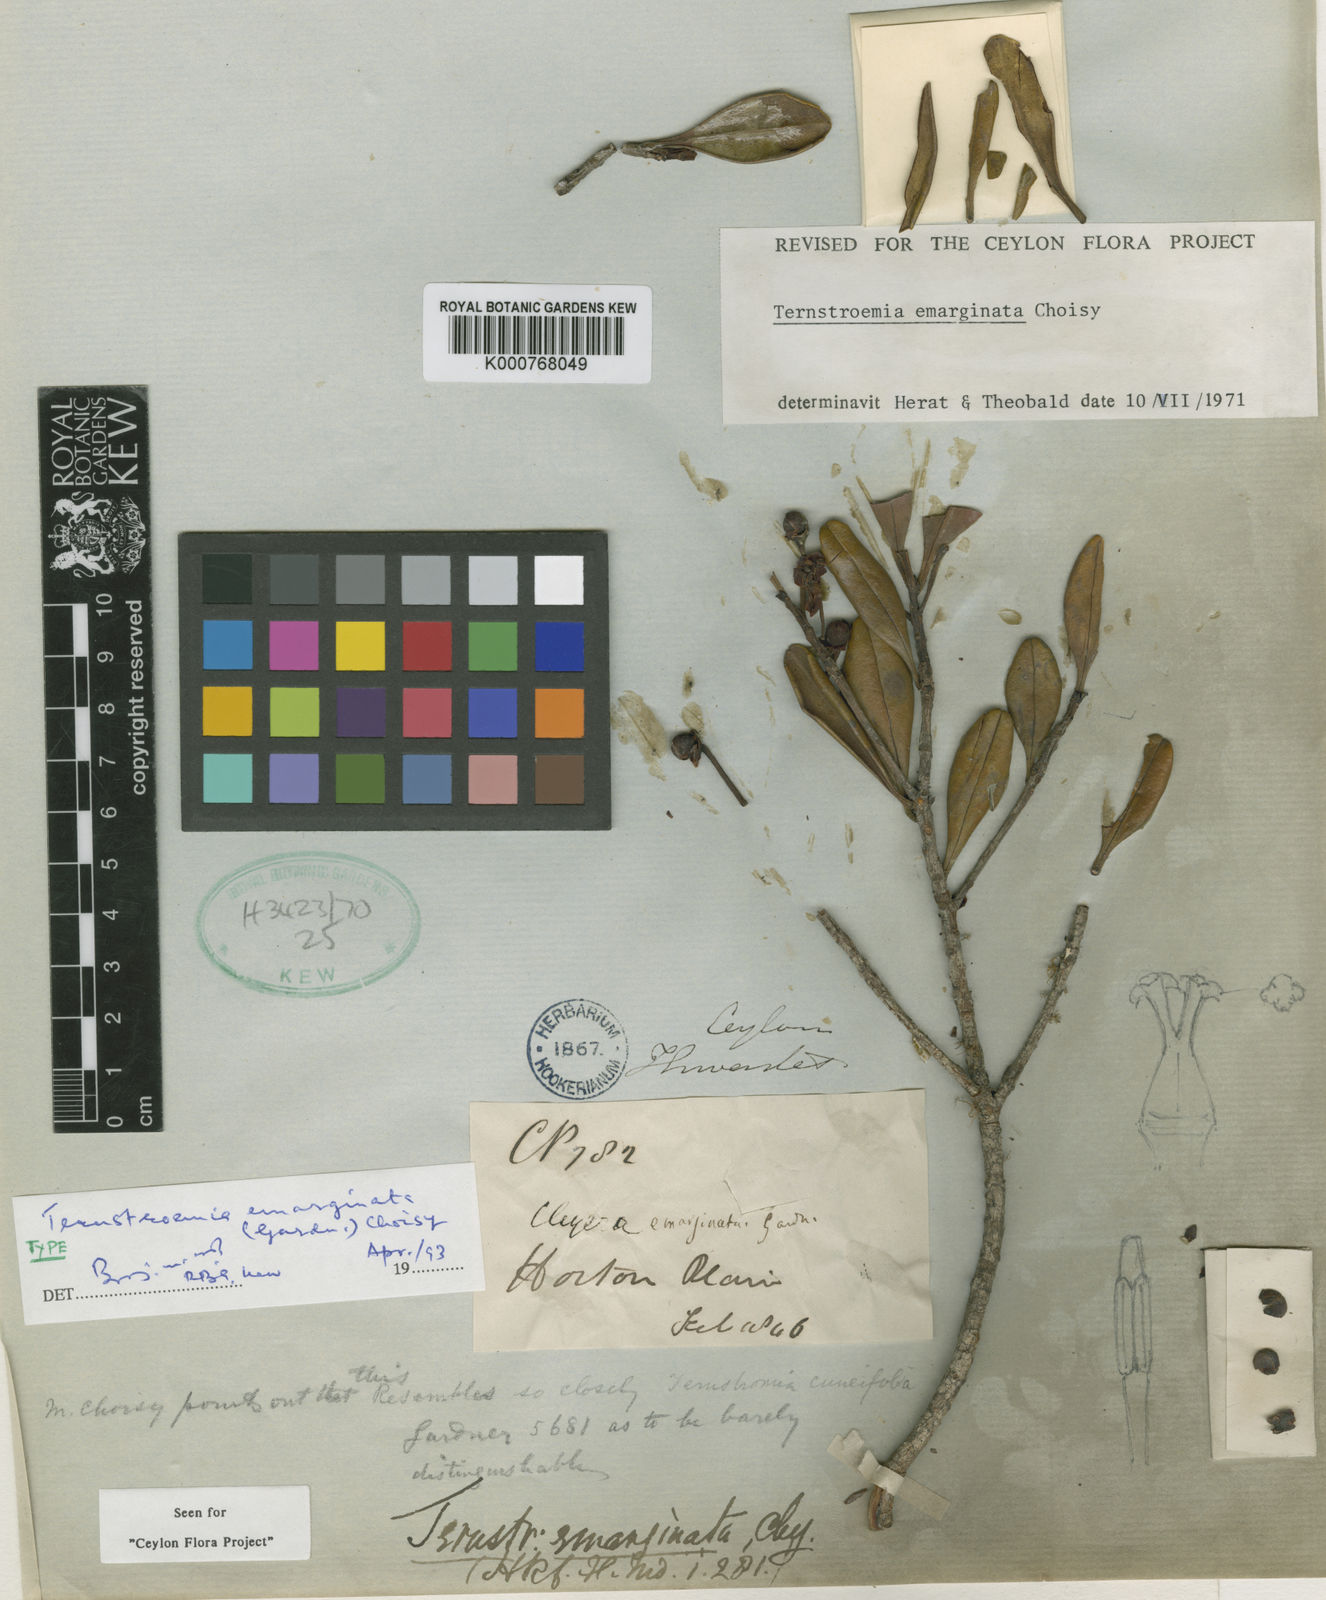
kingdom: Plantae
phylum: Tracheophyta
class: Magnoliopsida
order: Ericales
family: Pentaphylacaceae
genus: Ternstroemia
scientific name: Ternstroemia emarginata
